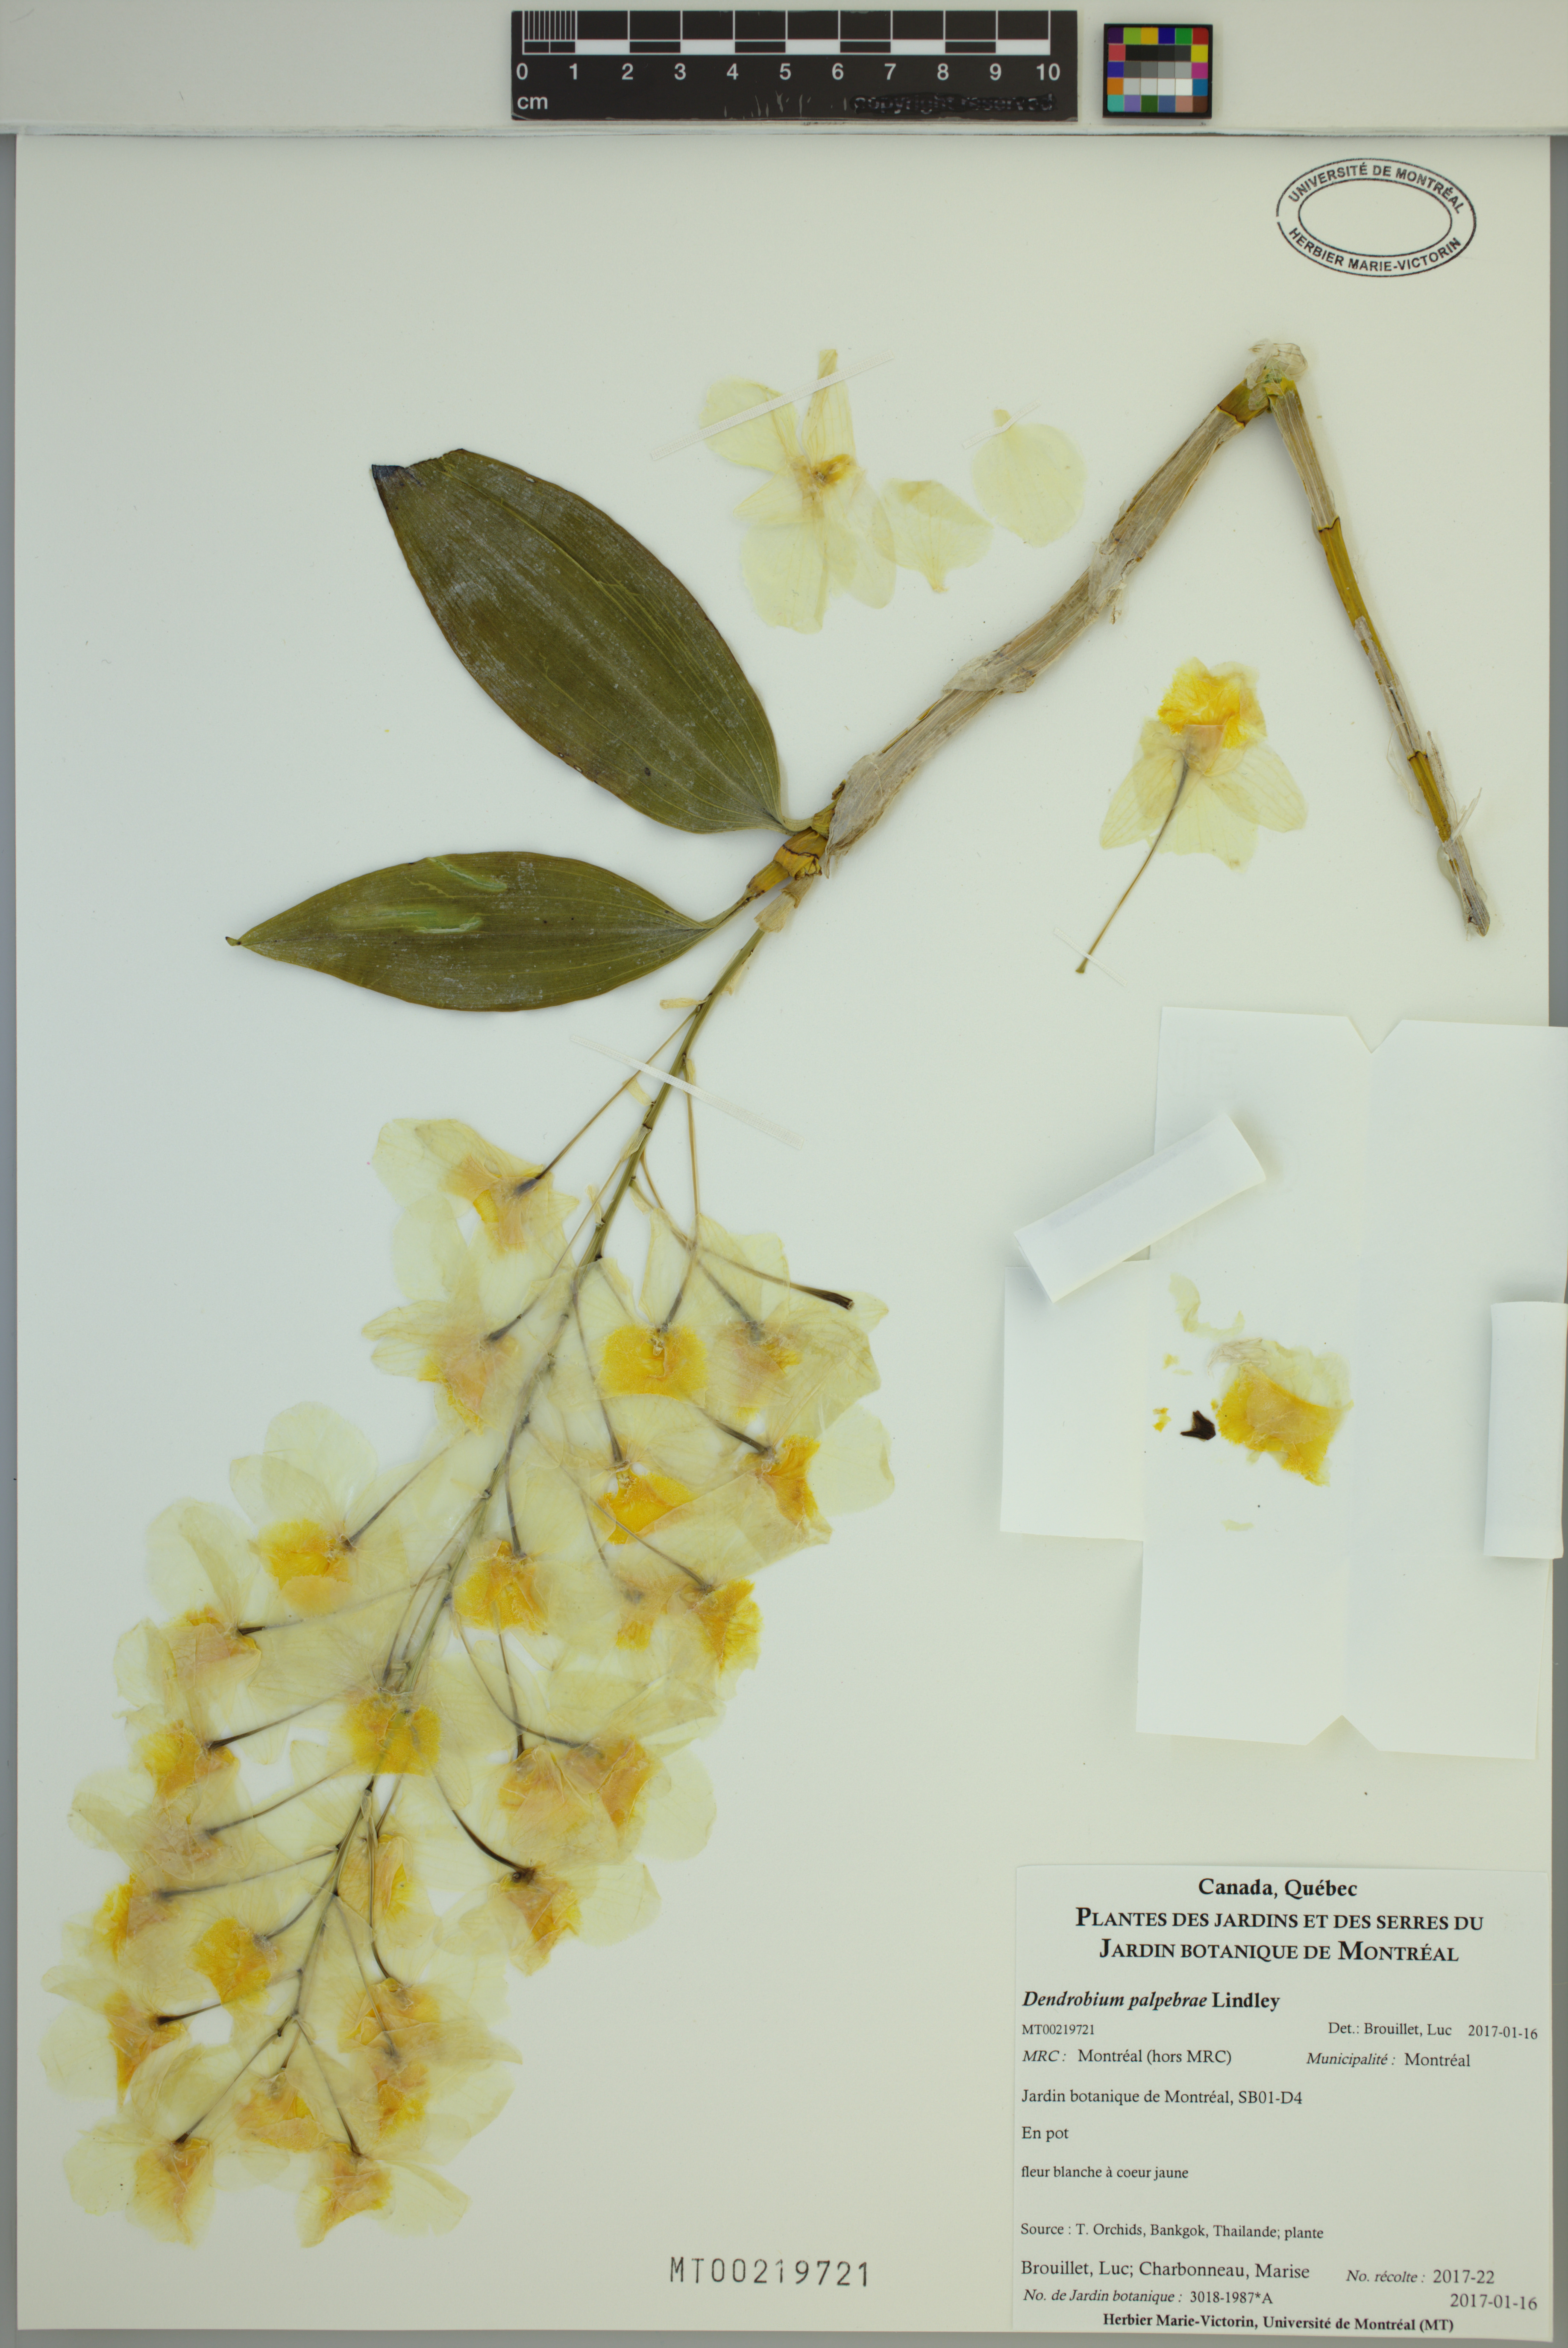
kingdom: Plantae
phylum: Tracheophyta
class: Liliopsida
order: Asparagales
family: Orchidaceae
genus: Dendrobium
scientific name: Dendrobium palpebrae
